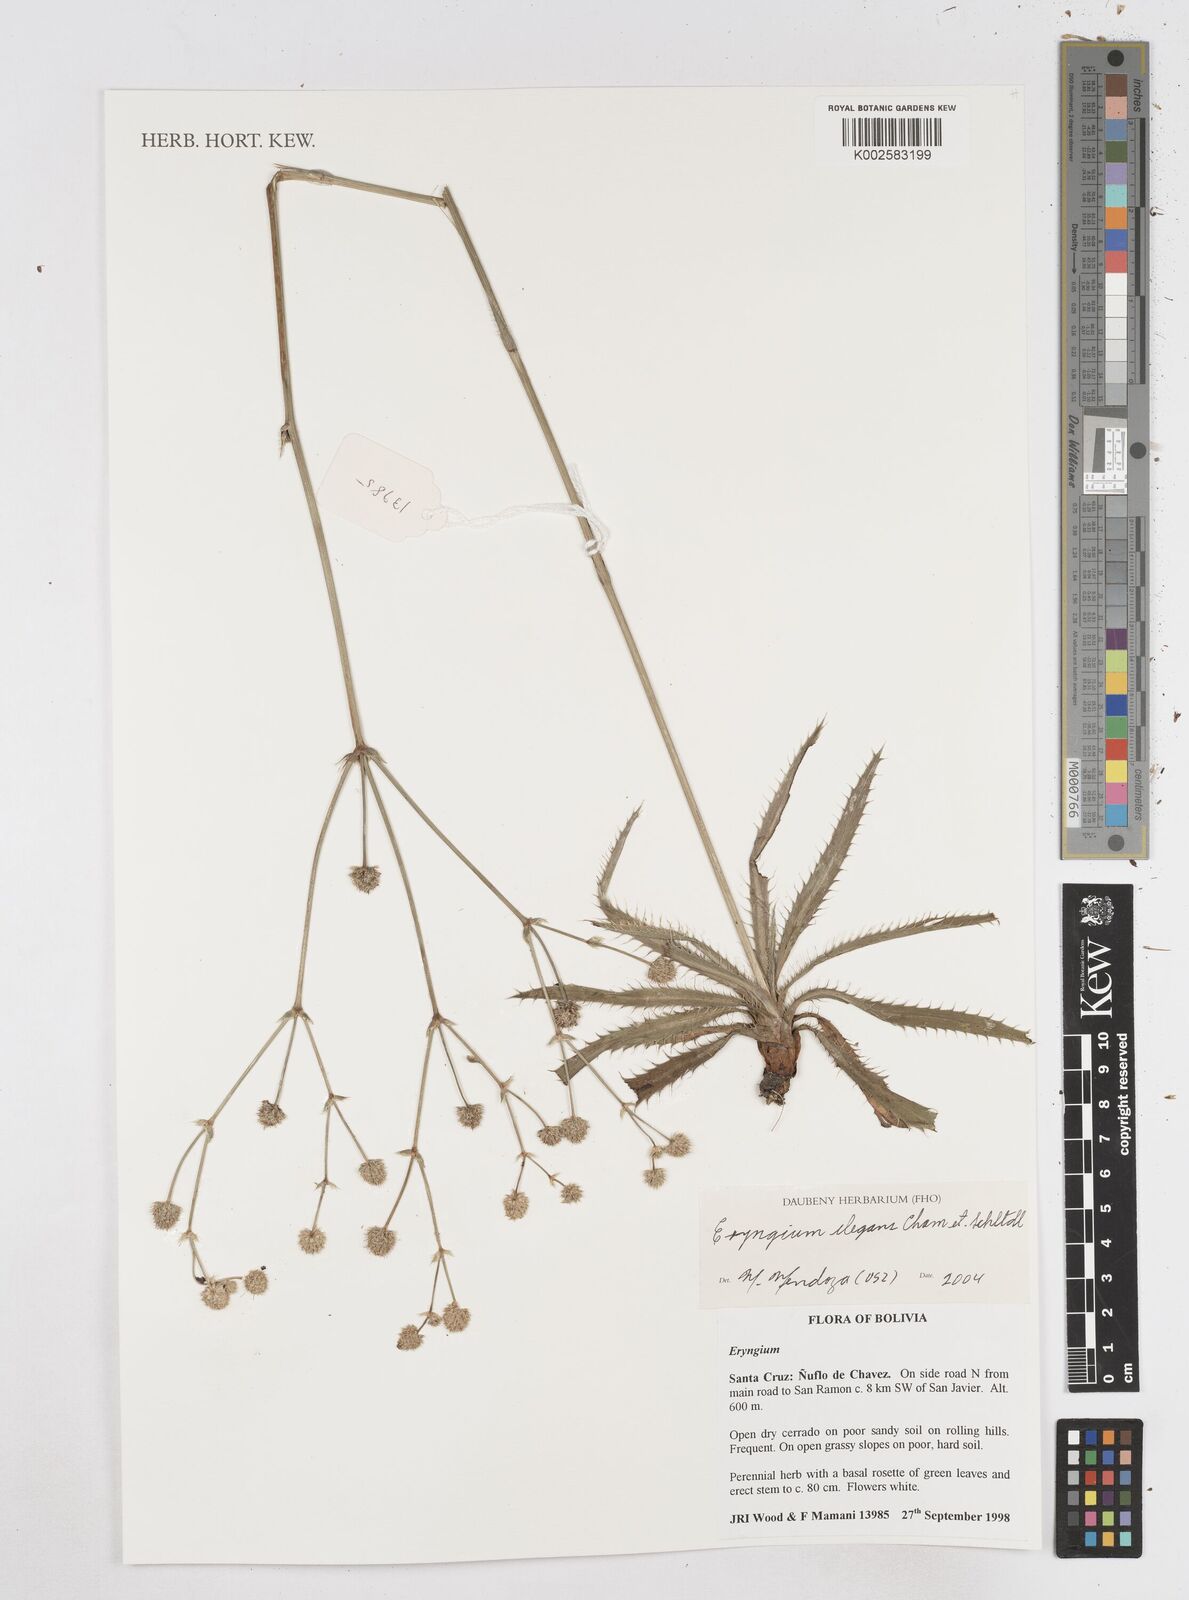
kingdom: Plantae
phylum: Tracheophyta
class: Magnoliopsida
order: Apiales
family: Apiaceae
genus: Eryngium
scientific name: Eryngium elegans
